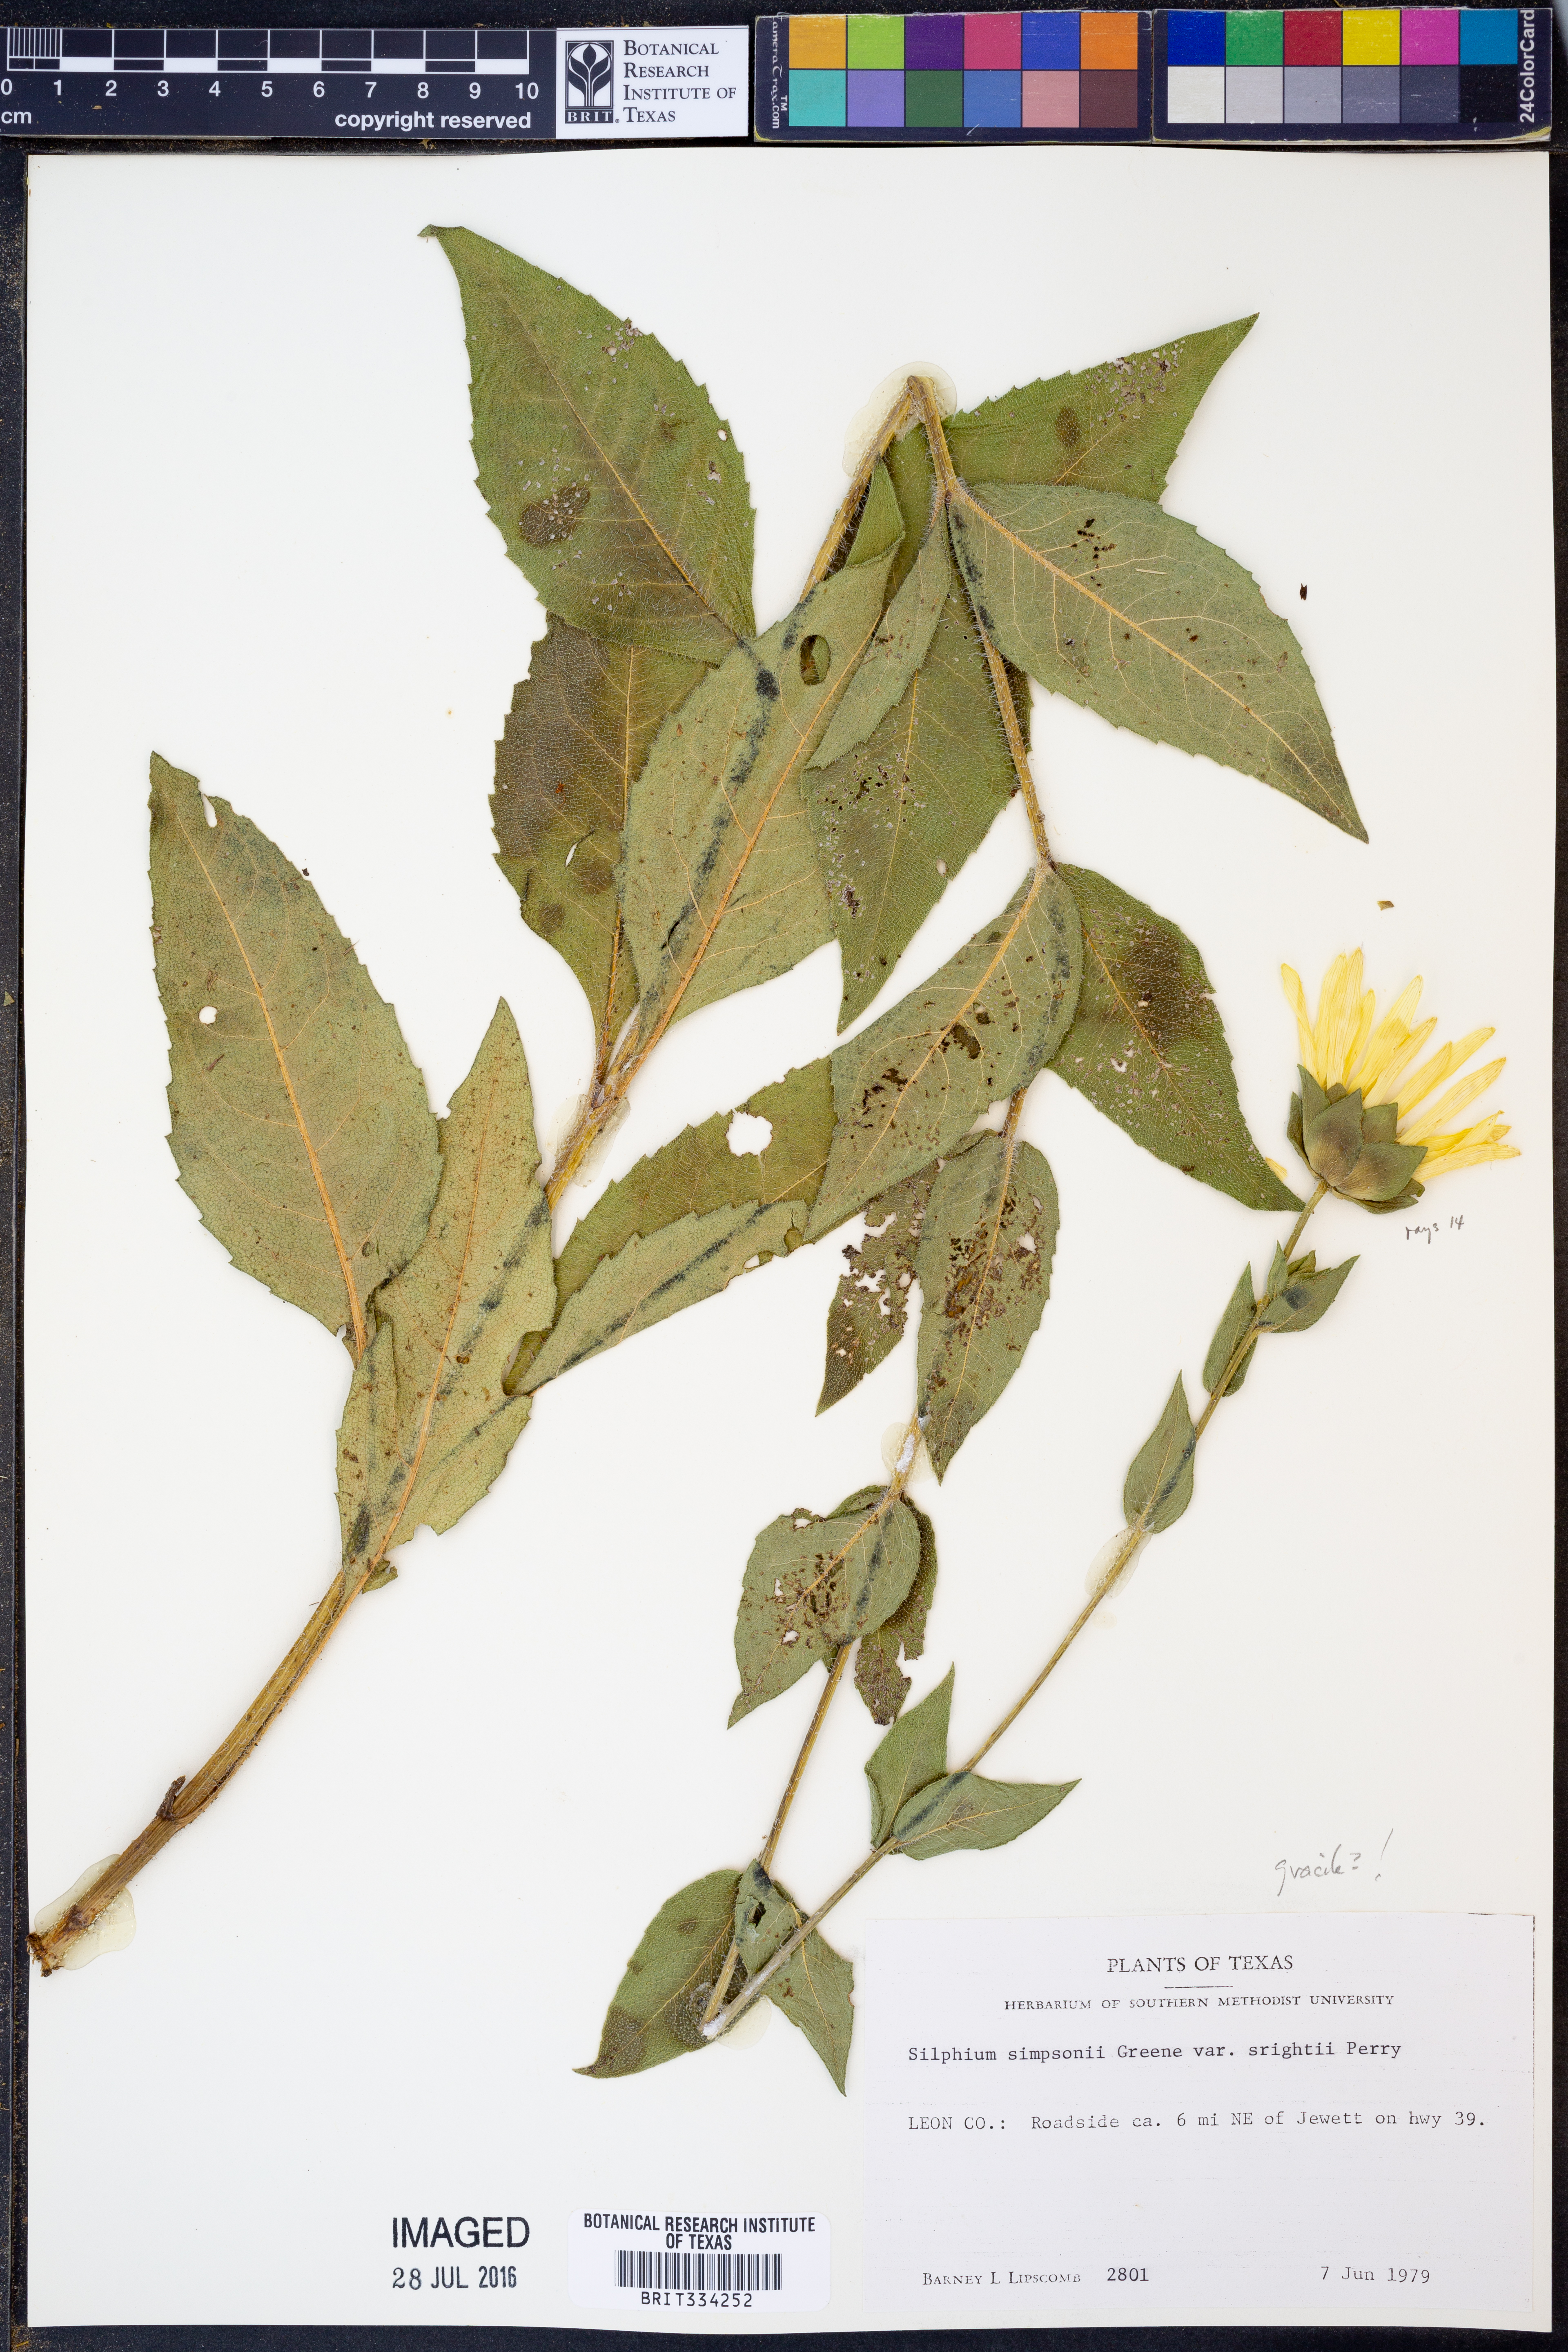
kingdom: Plantae
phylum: Tracheophyta
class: Magnoliopsida
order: Asterales
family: Asteraceae
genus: Silphium
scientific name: Silphium radula
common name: Roughleaf rosinweed
